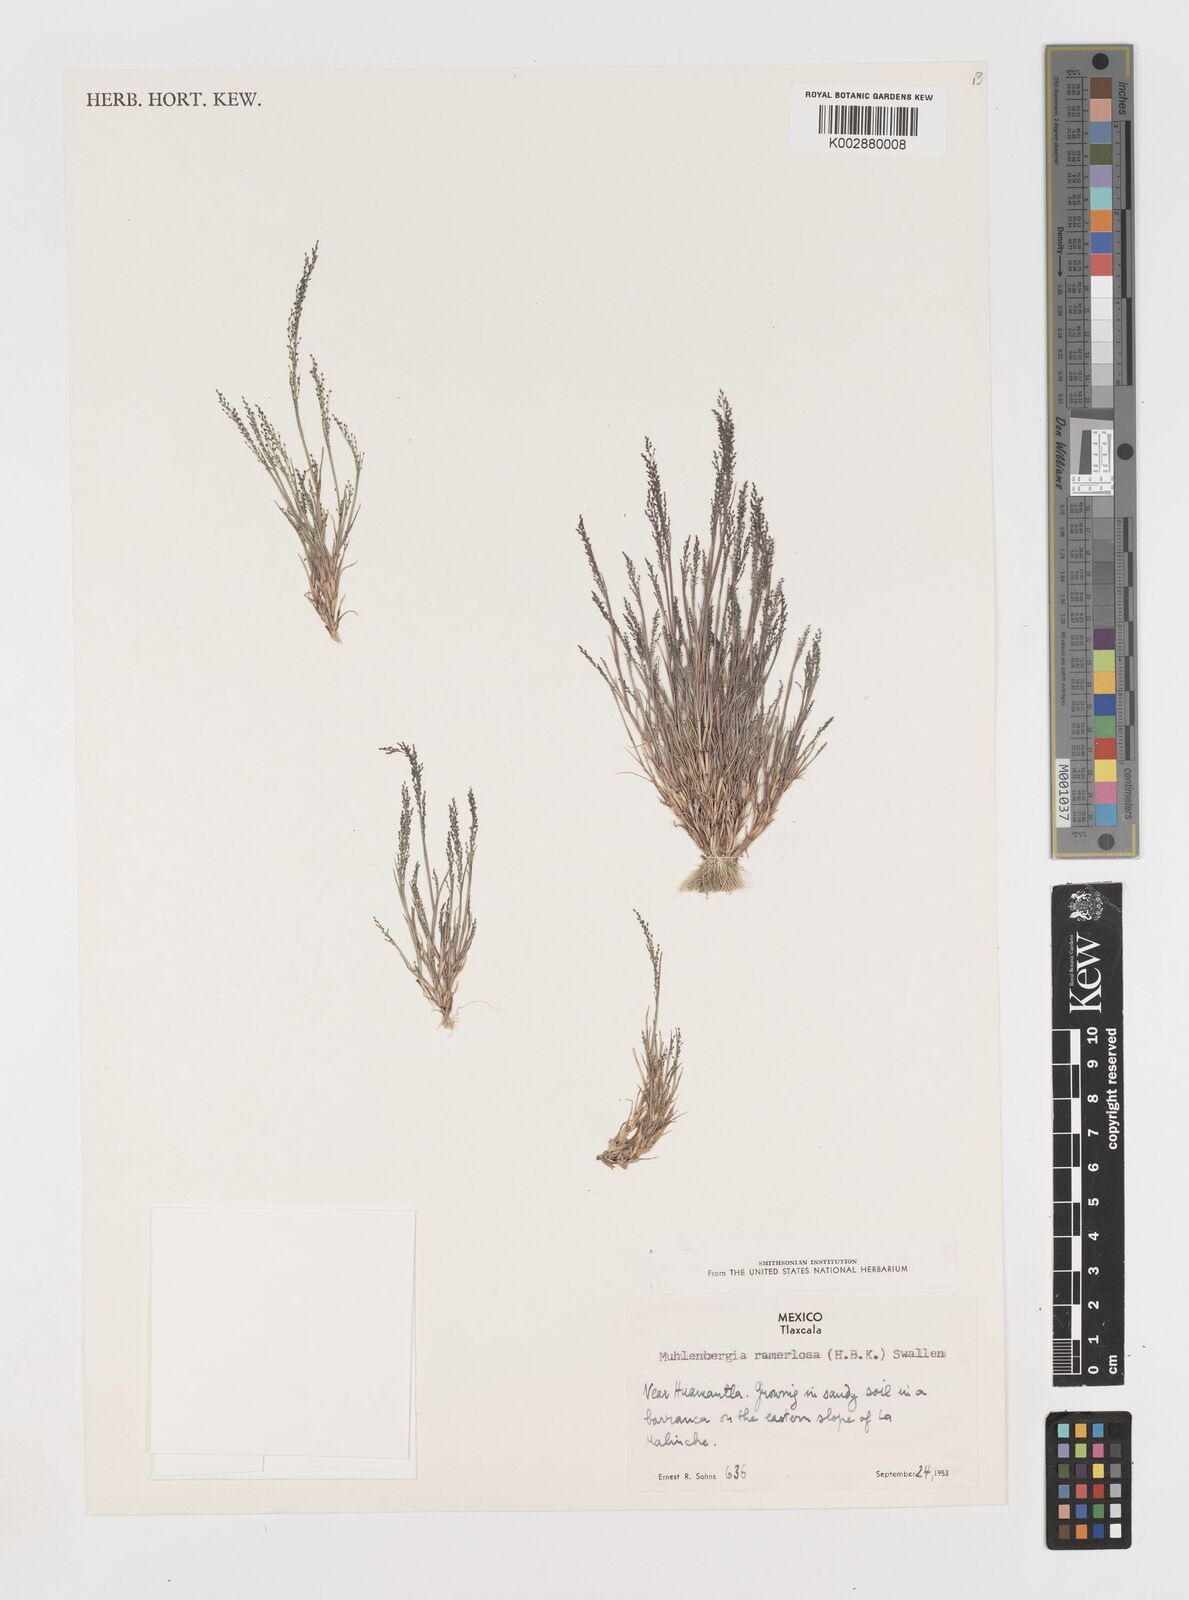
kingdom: Plantae
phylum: Tracheophyta
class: Liliopsida
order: Poales
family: Poaceae
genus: Muhlenbergia
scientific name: Muhlenbergia ramulosa
